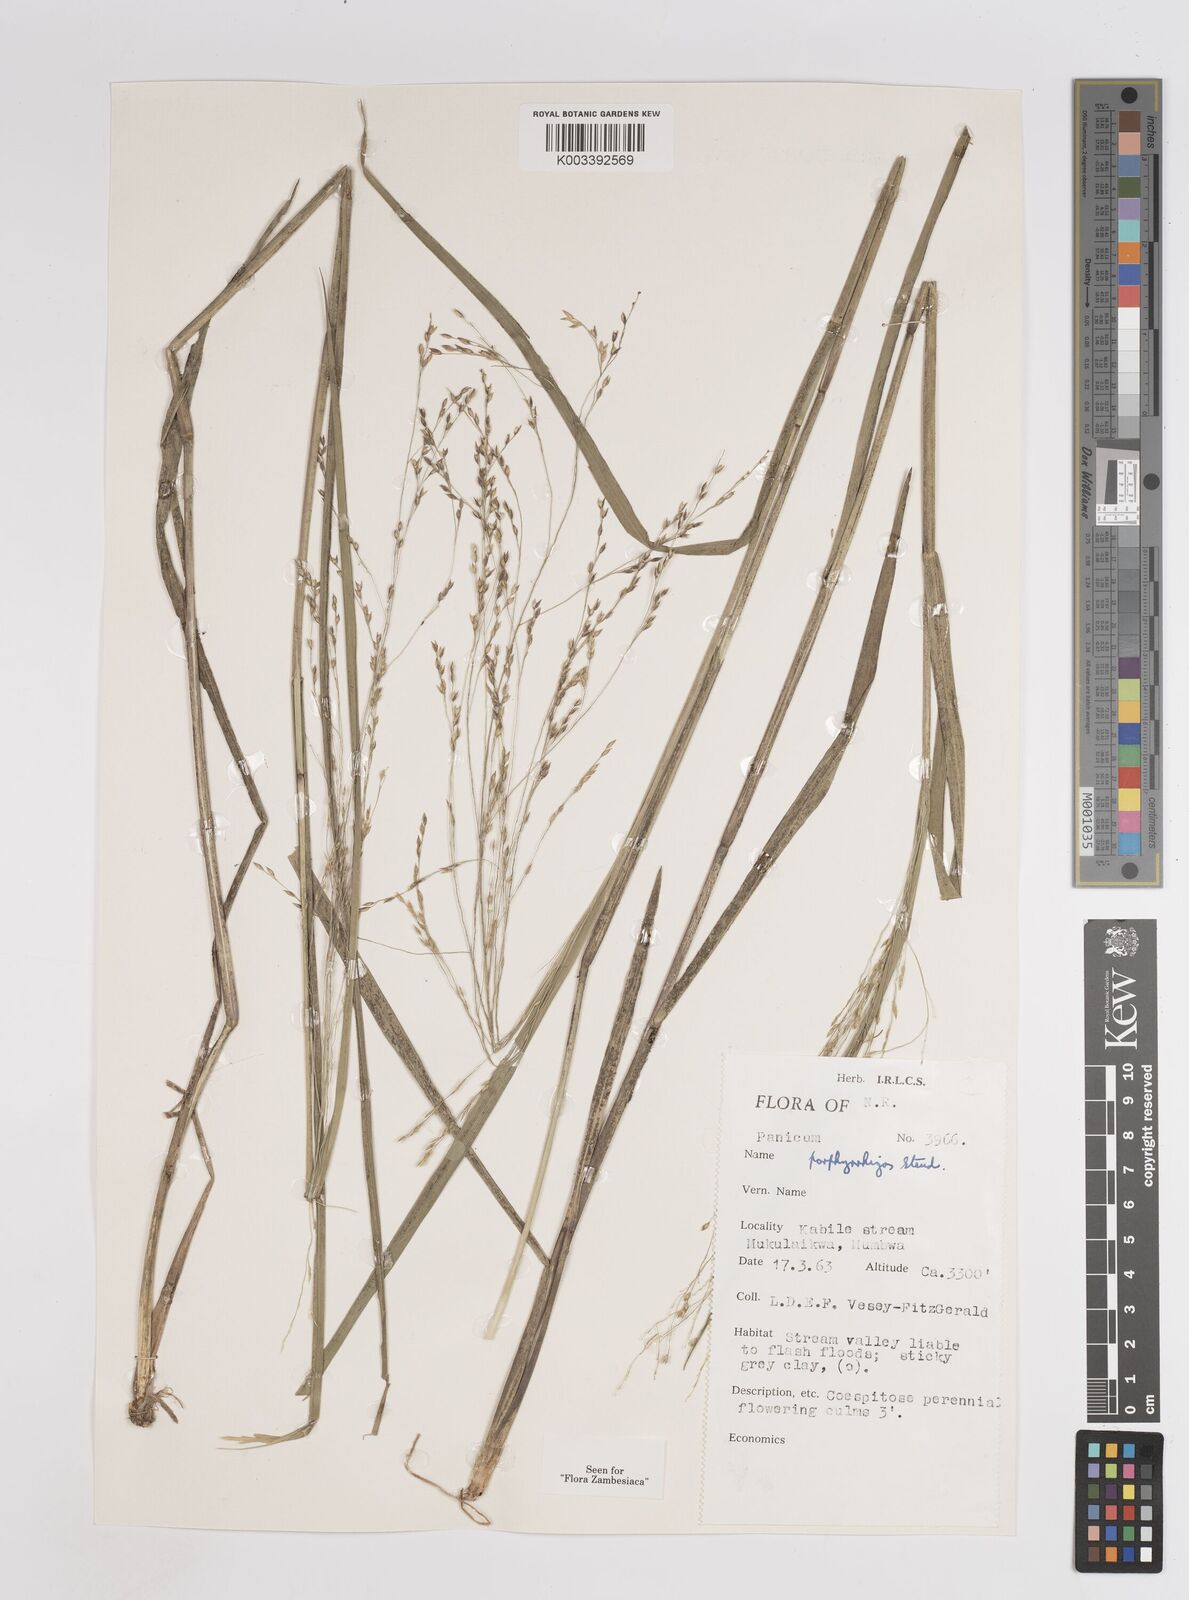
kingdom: Plantae
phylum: Tracheophyta
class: Liliopsida
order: Poales
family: Poaceae
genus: Panicum
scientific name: Panicum porphyrrhizos
